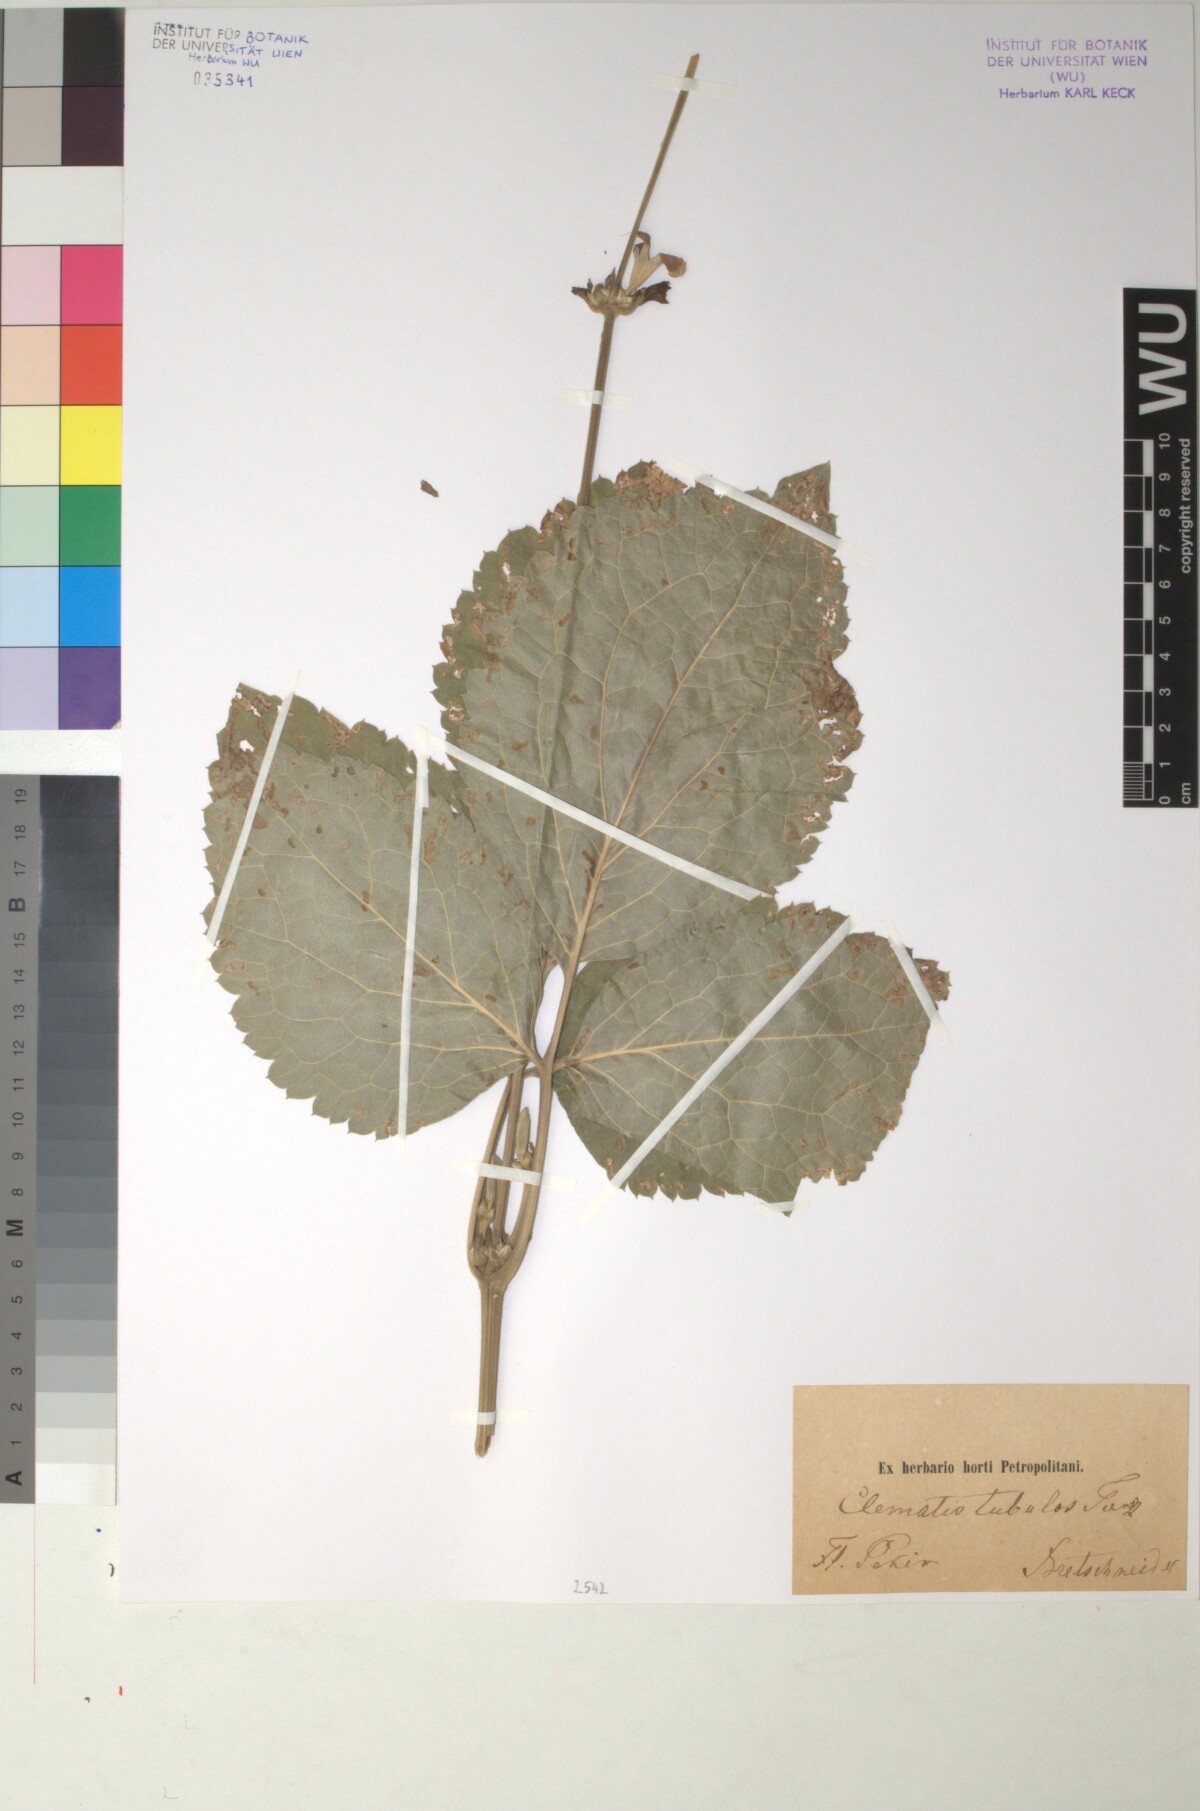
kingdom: Plantae
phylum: Tracheophyta
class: Magnoliopsida
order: Ranunculales
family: Ranunculaceae
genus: Clematis
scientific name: Clematis heracleifolia
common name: Hyacinth-flower clematis
